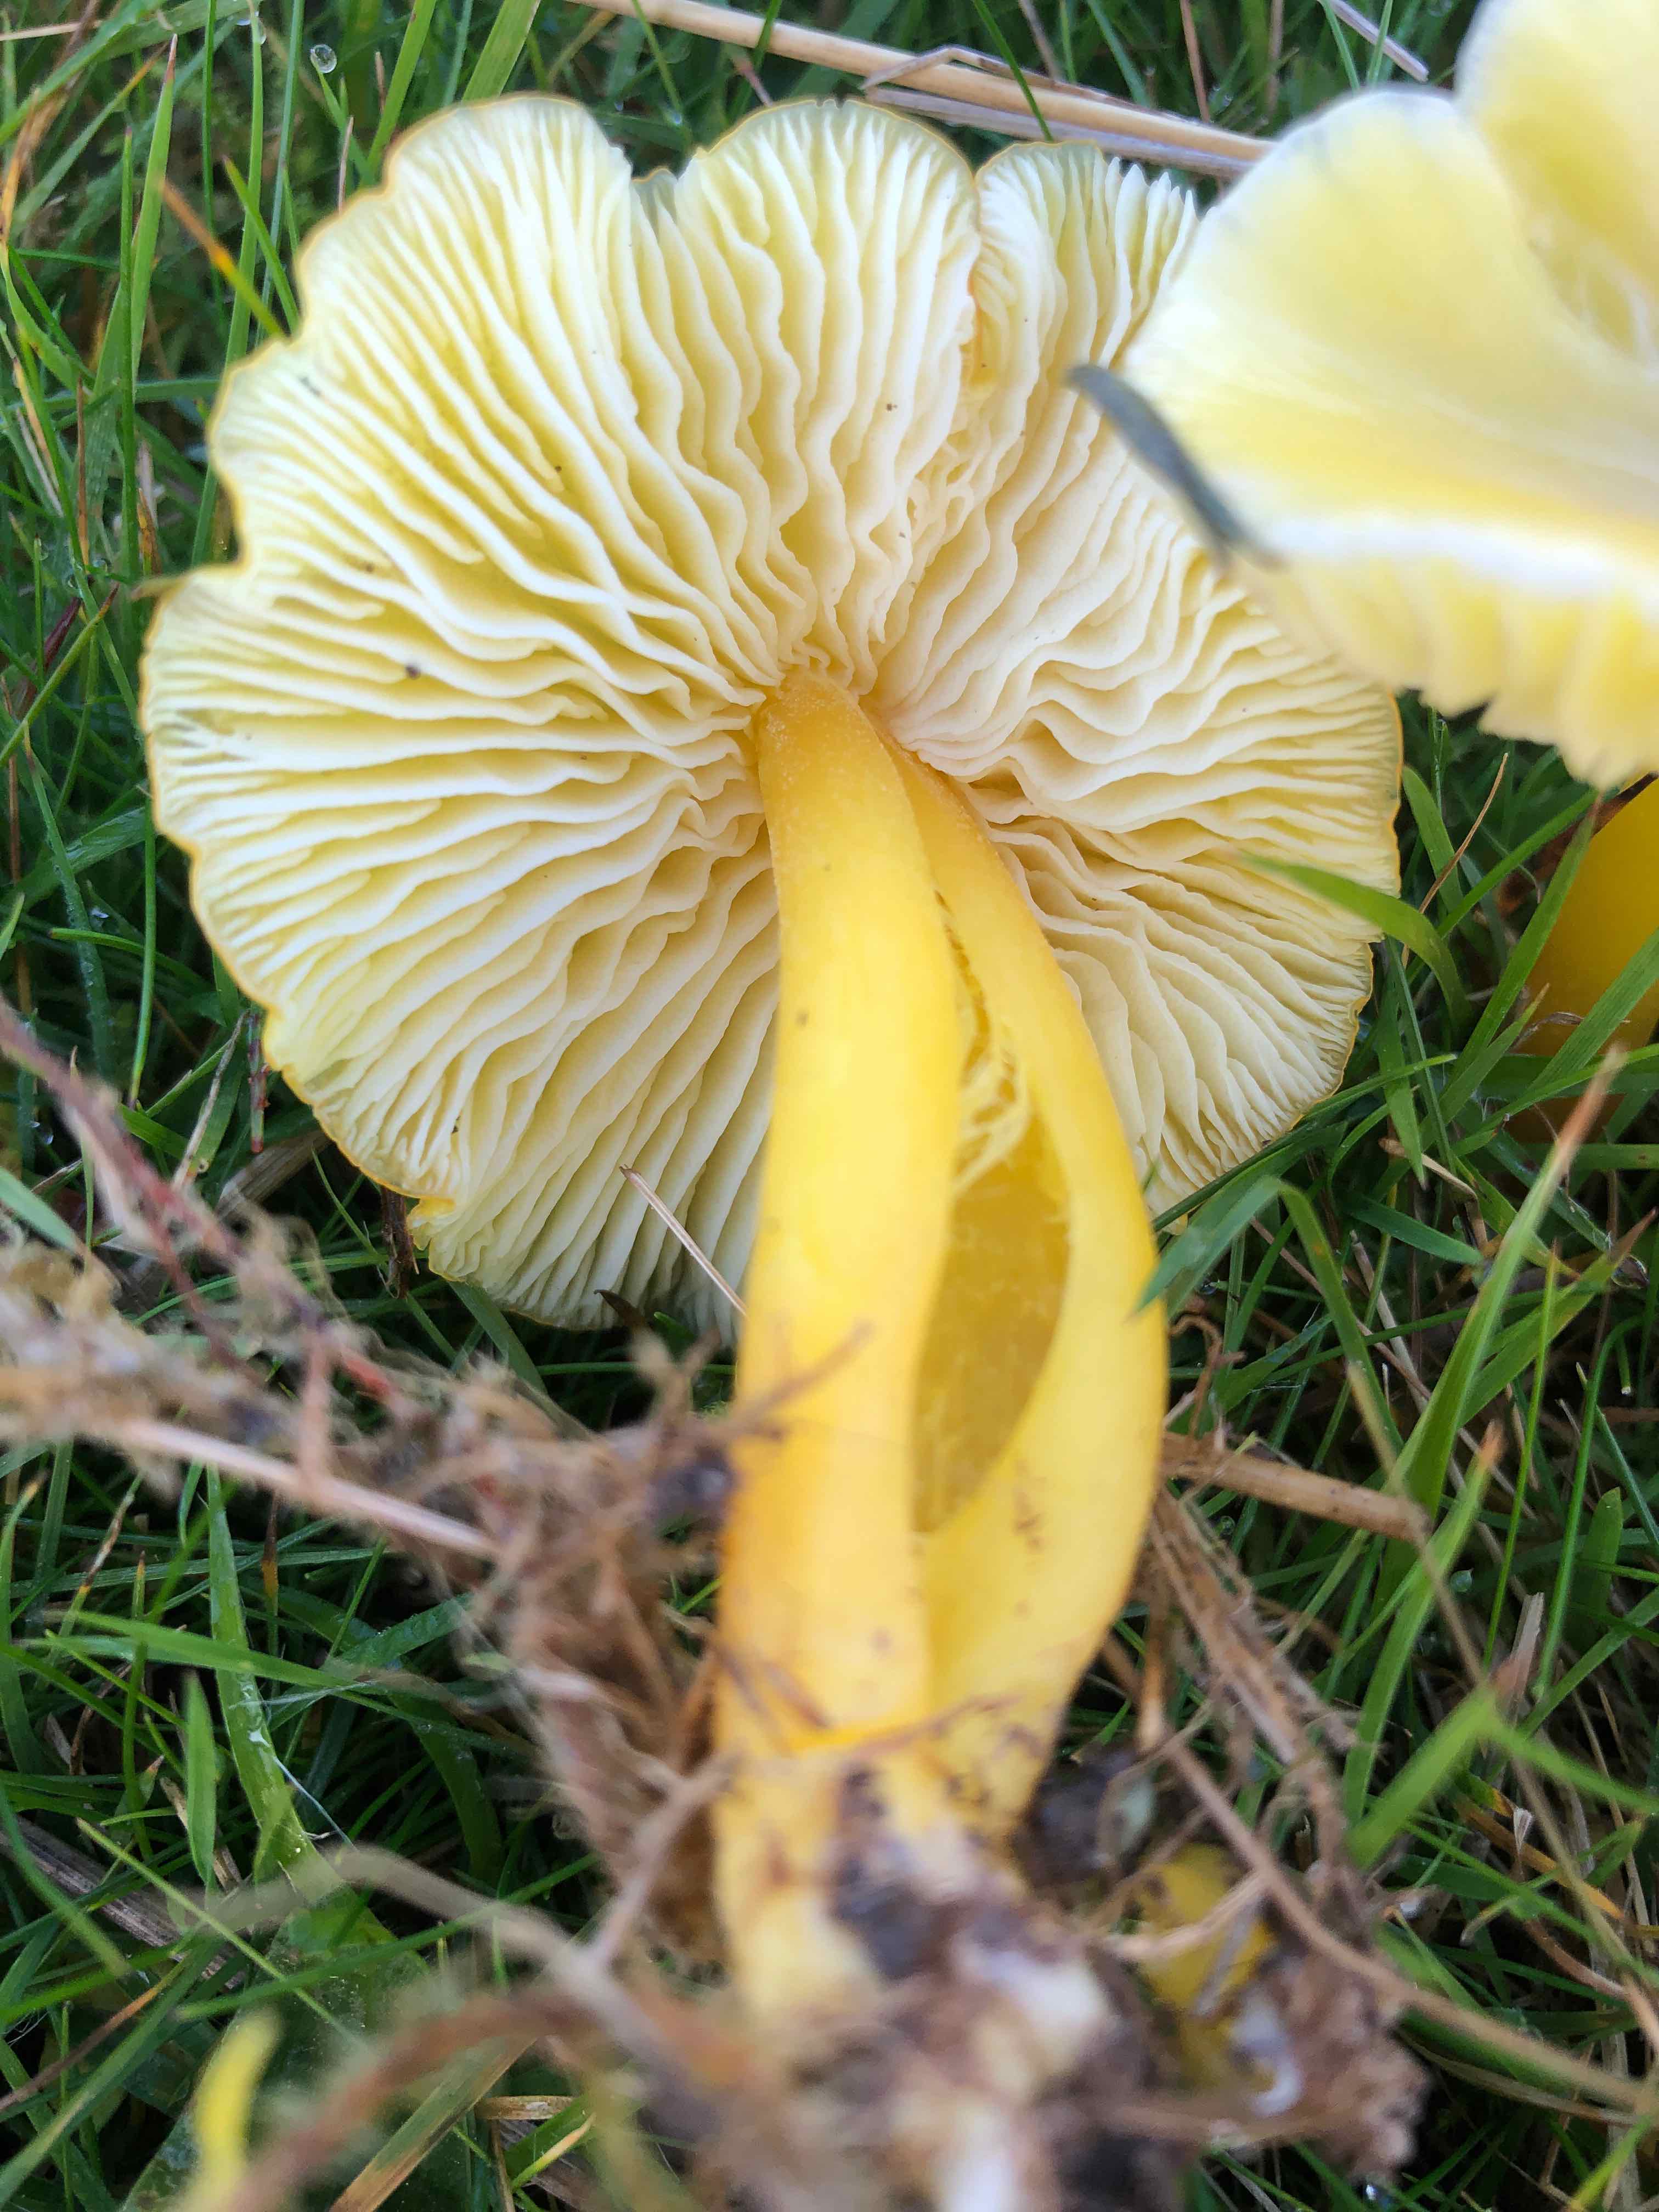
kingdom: Fungi
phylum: Basidiomycota
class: Agaricomycetes
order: Agaricales
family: Hygrophoraceae
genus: Hygrocybe
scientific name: Hygrocybe chlorophana
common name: gul vokshat
